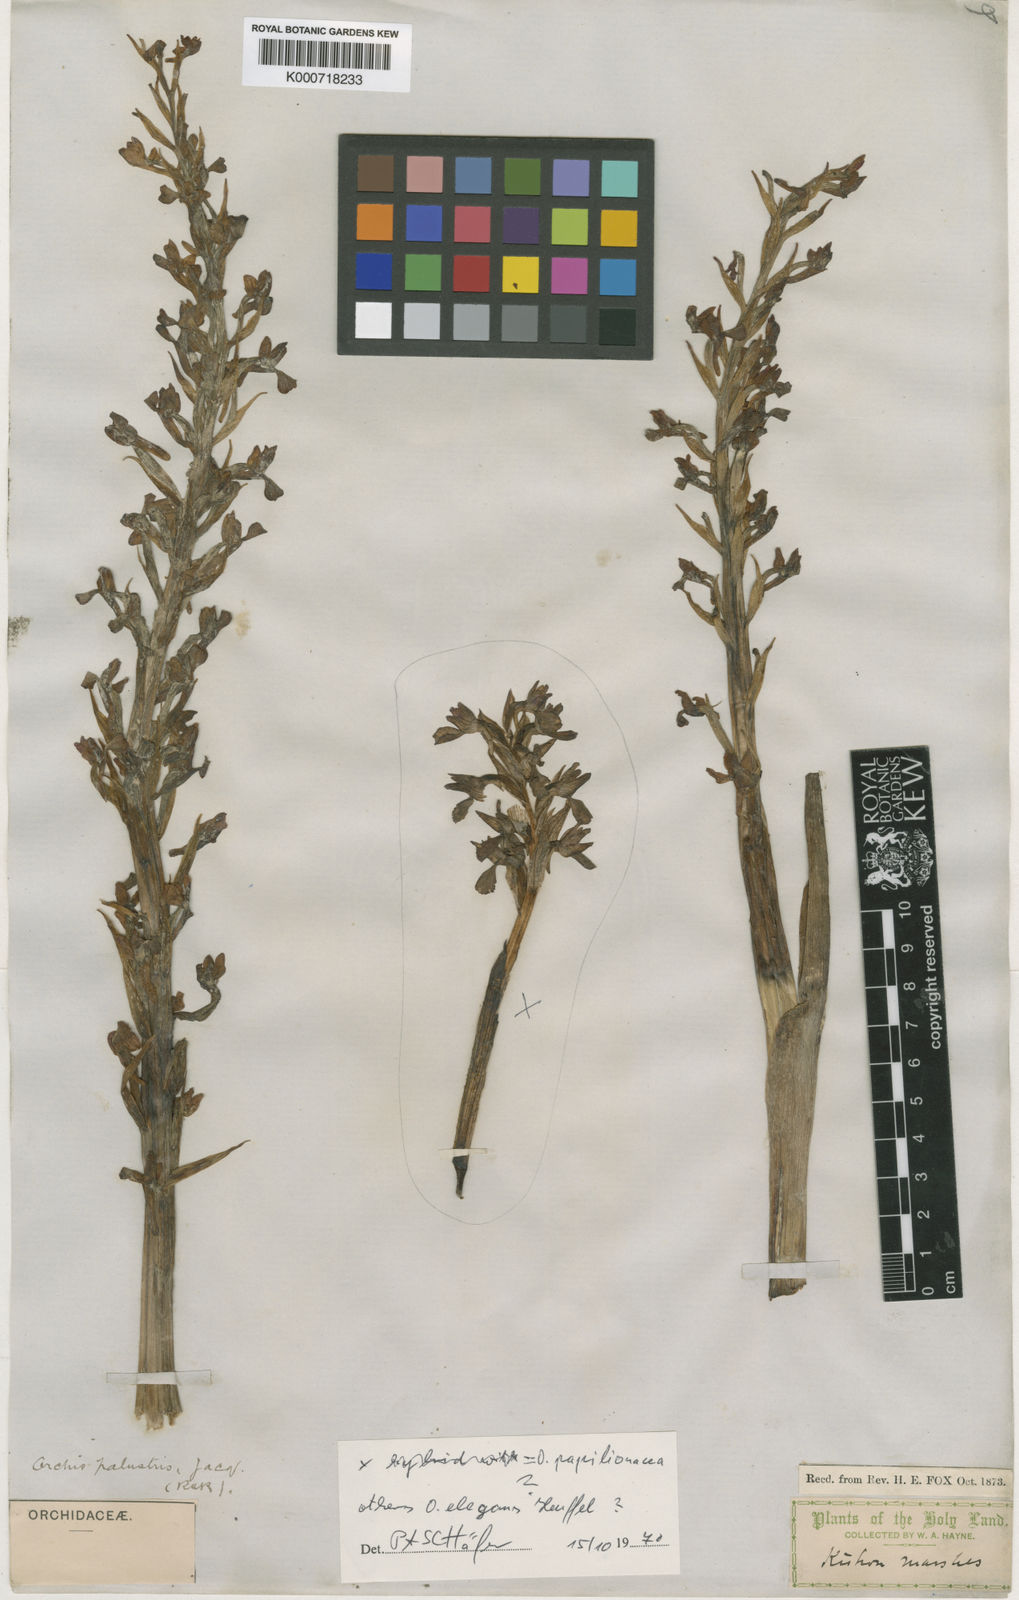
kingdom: Plantae
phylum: Tracheophyta
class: Liliopsida
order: Asparagales
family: Orchidaceae
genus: Anacamptis
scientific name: Anacamptis palustris
